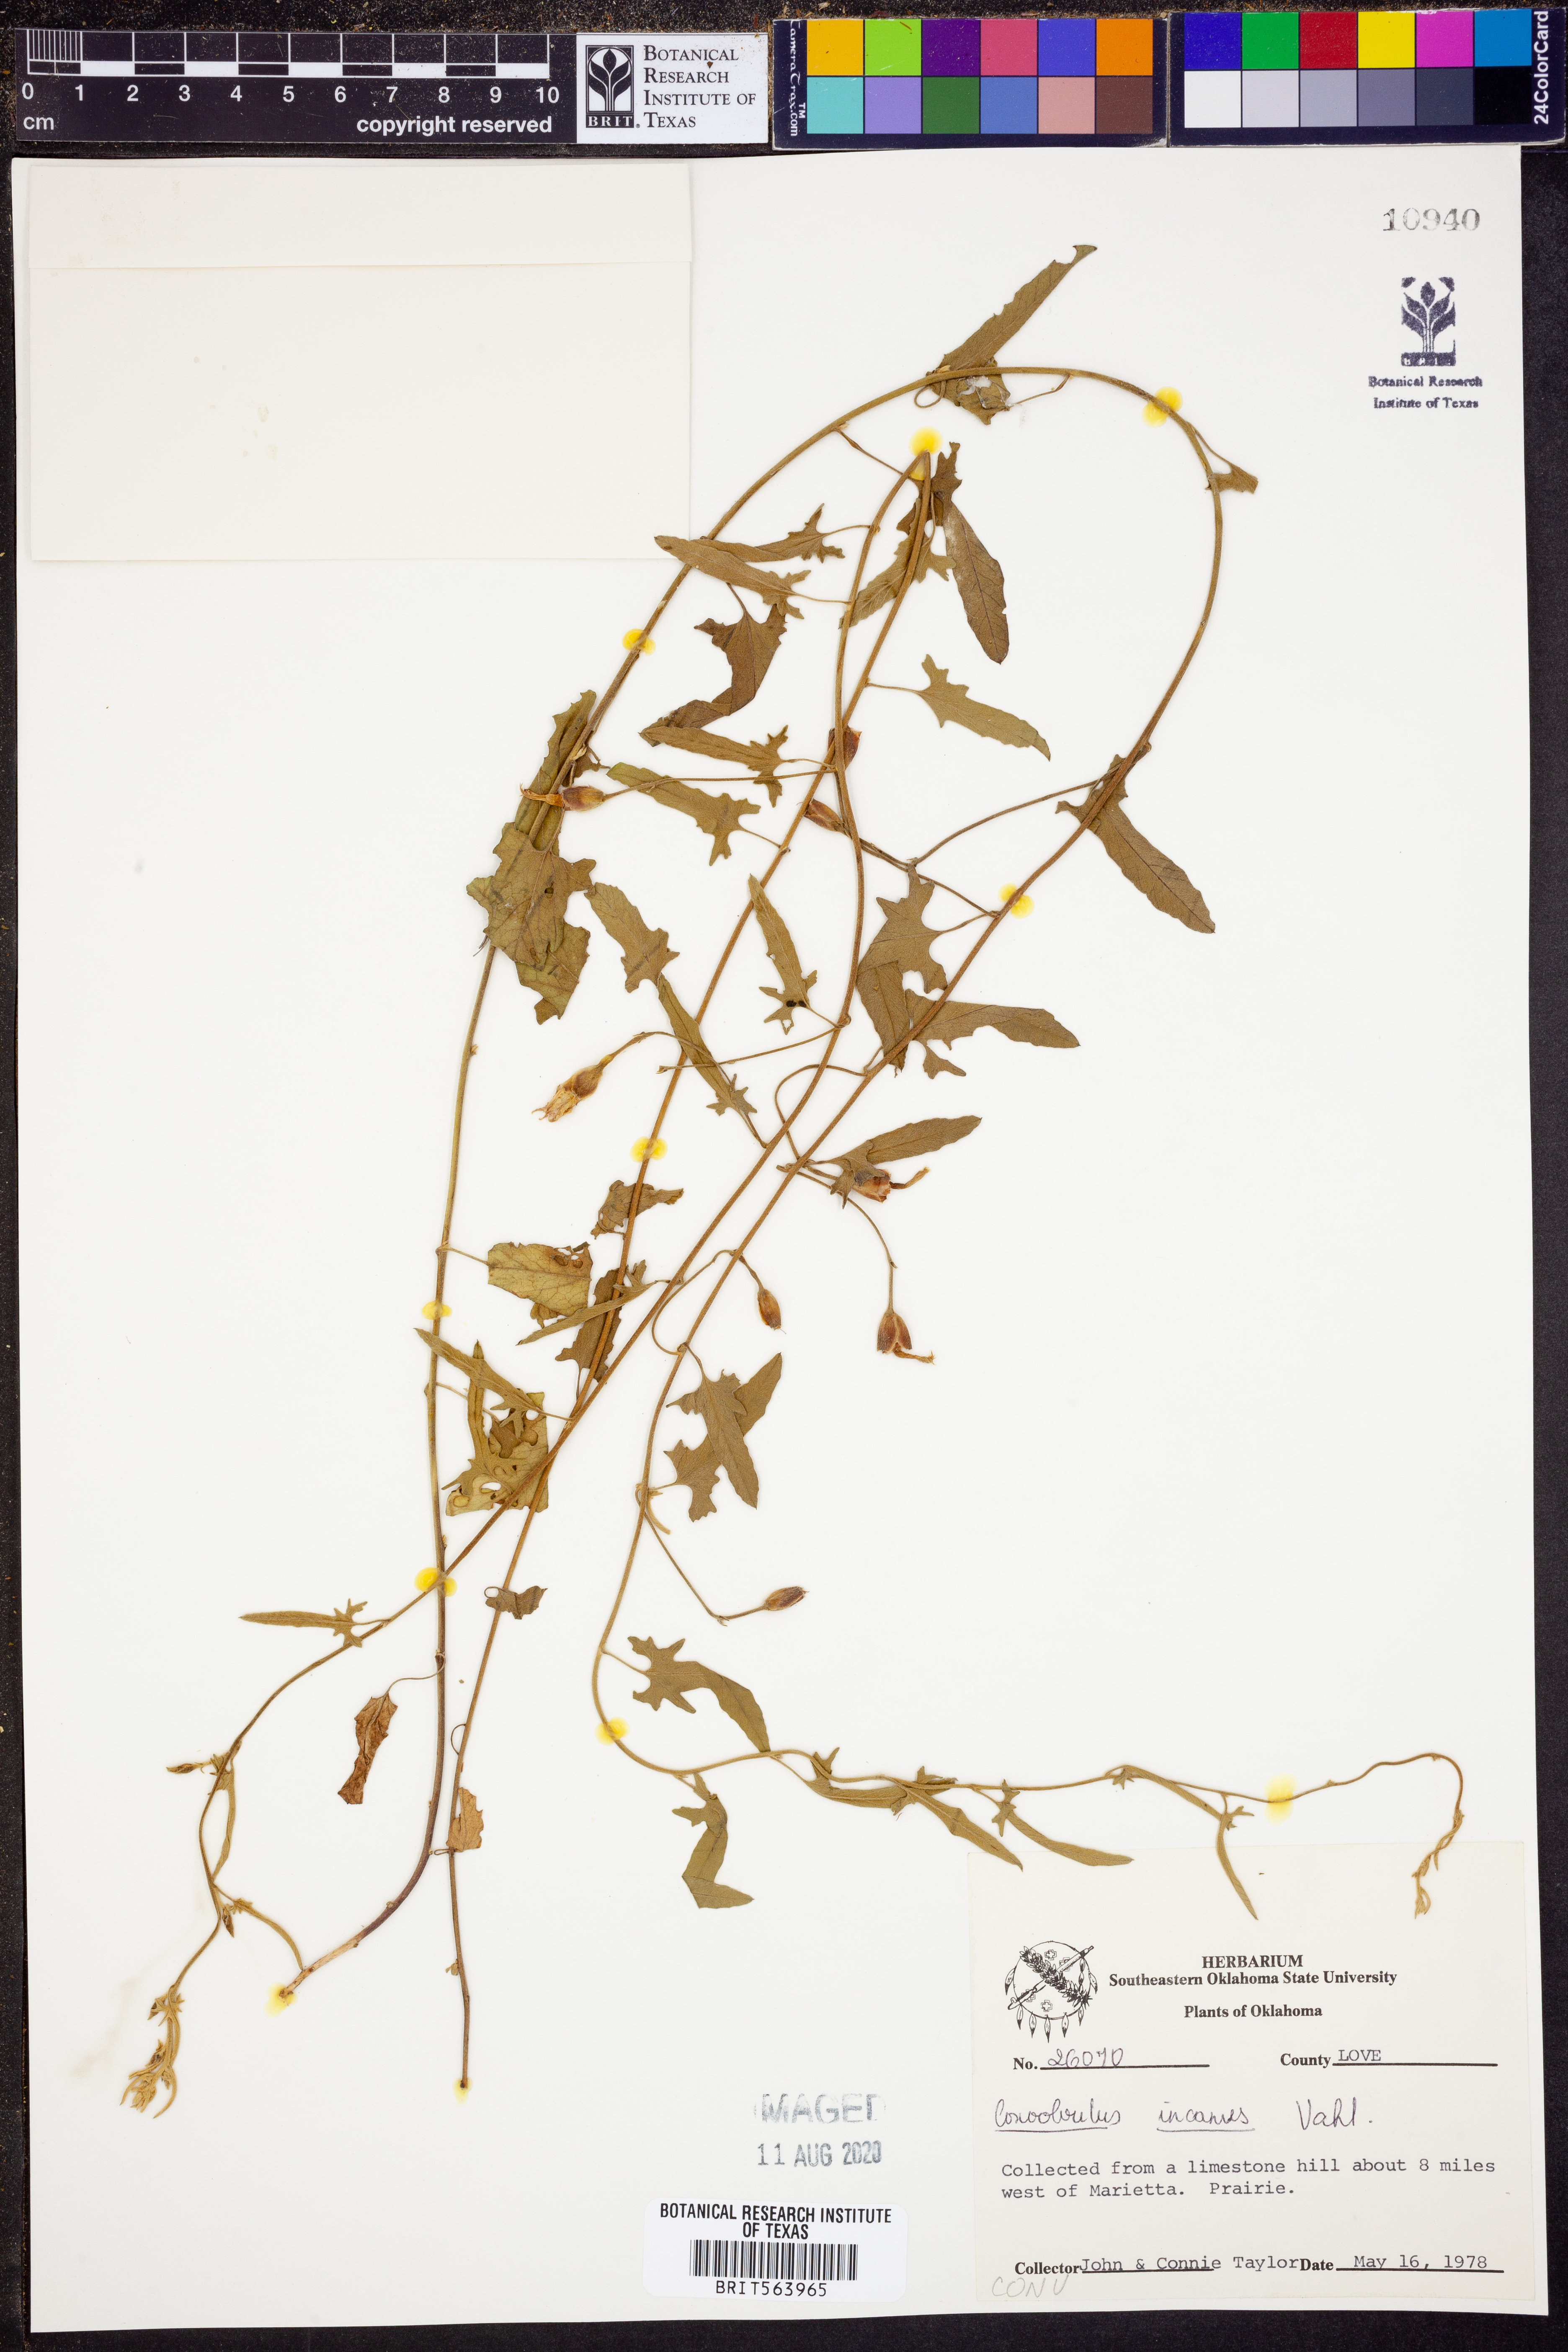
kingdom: Plantae
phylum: Tracheophyta
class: Magnoliopsida
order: Solanales
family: Convolvulaceae
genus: Convolvulus
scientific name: Convolvulus hermanniae
